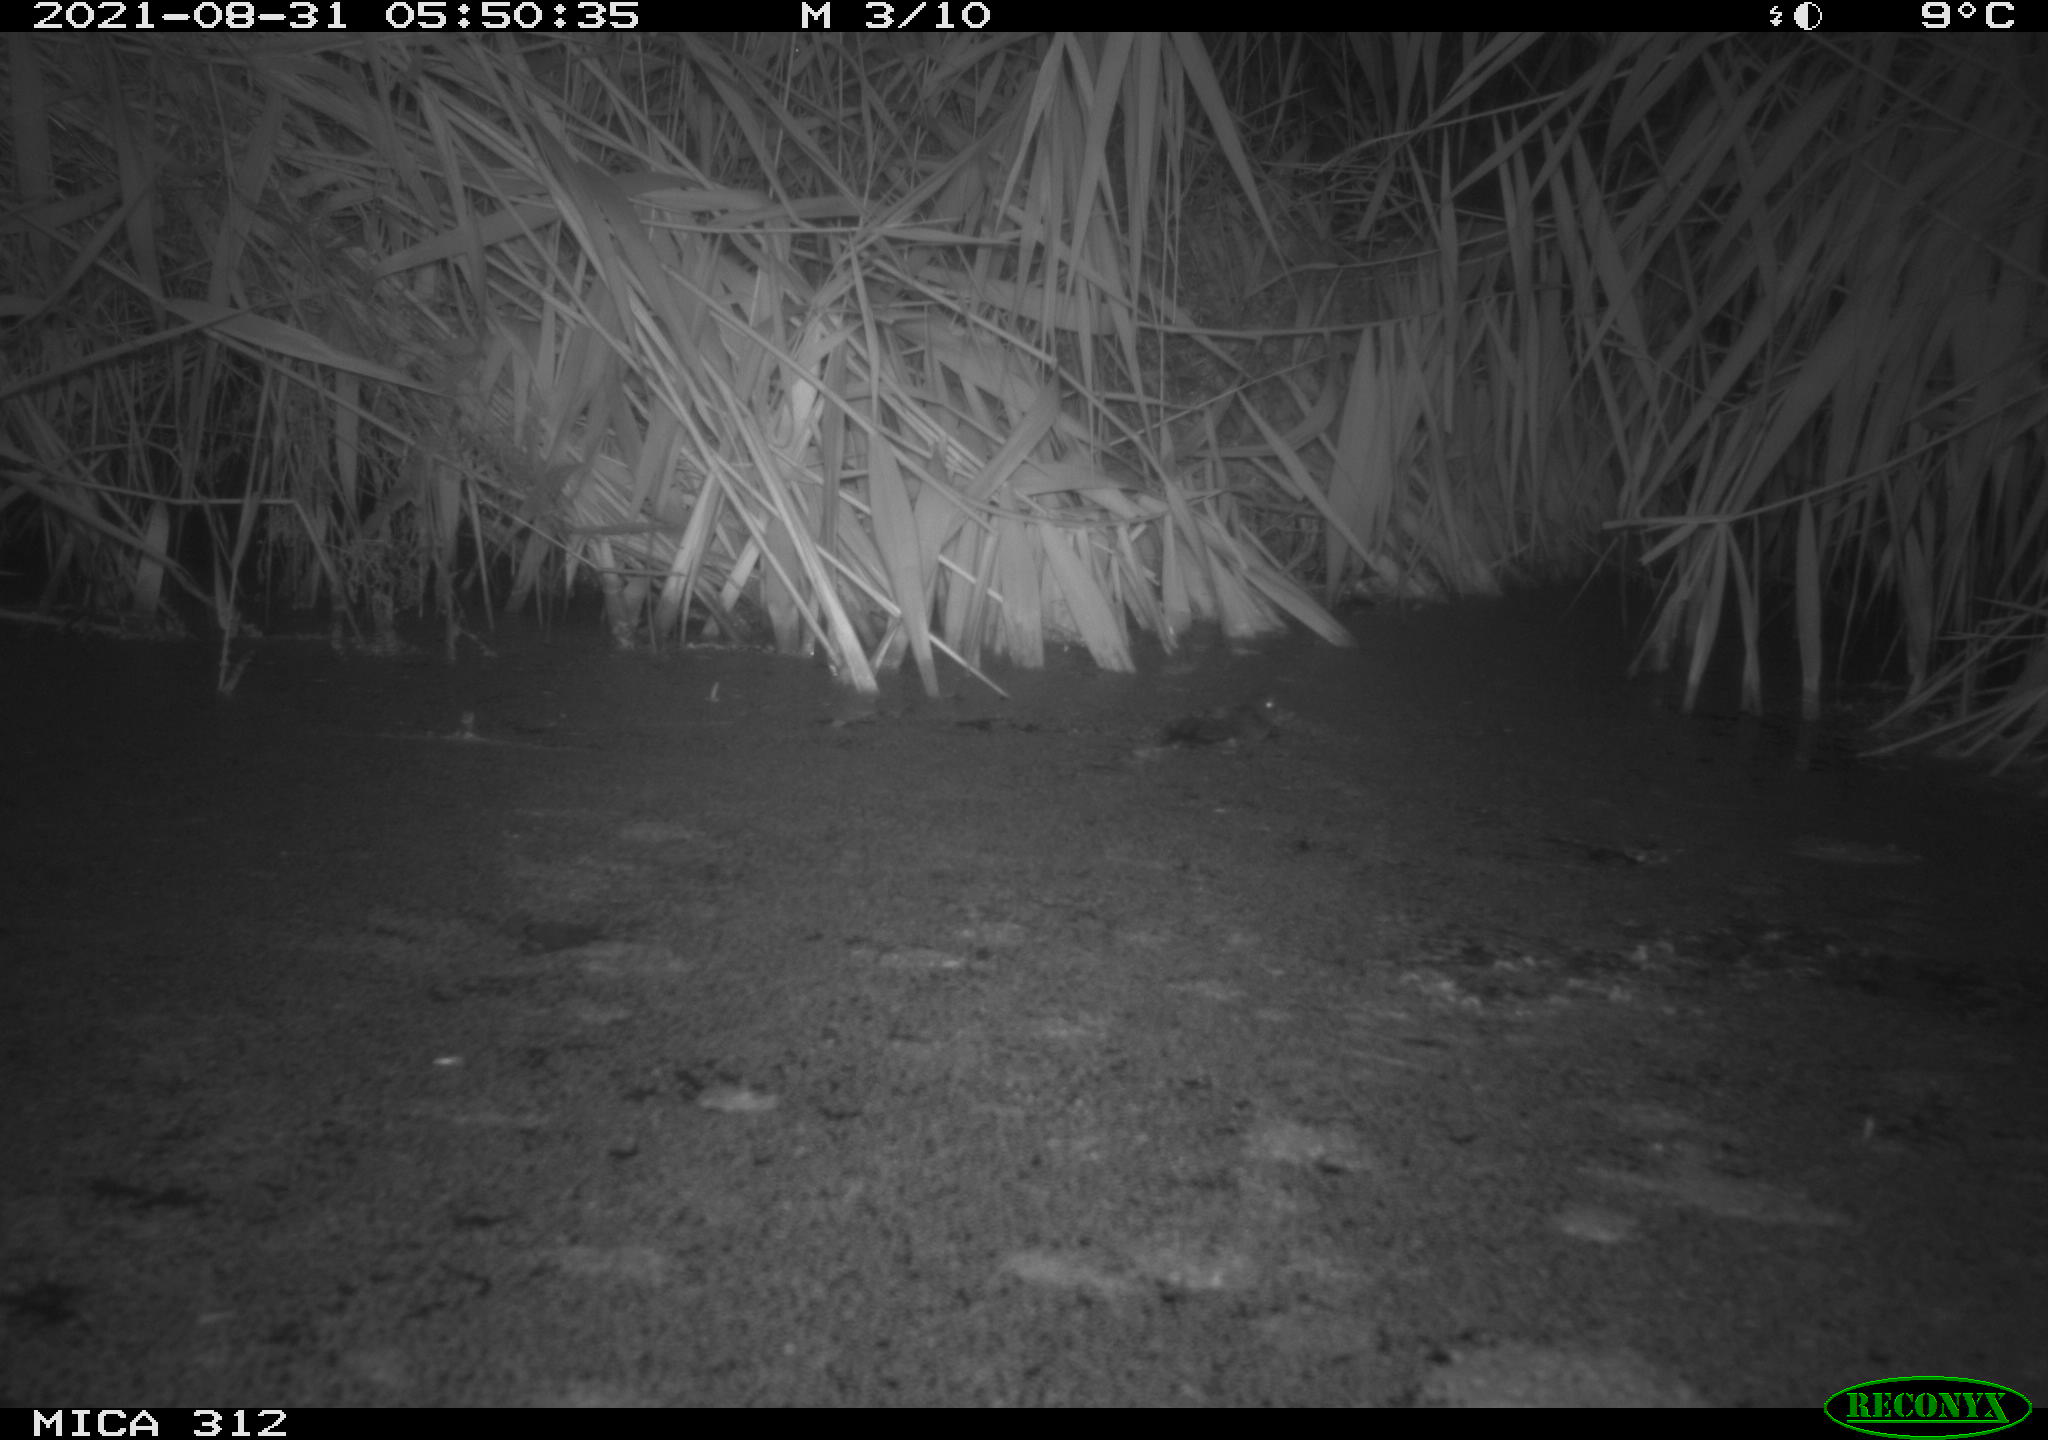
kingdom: Animalia
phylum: Chordata
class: Mammalia
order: Rodentia
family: Muridae
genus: Rattus
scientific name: Rattus norvegicus
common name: Brown rat
